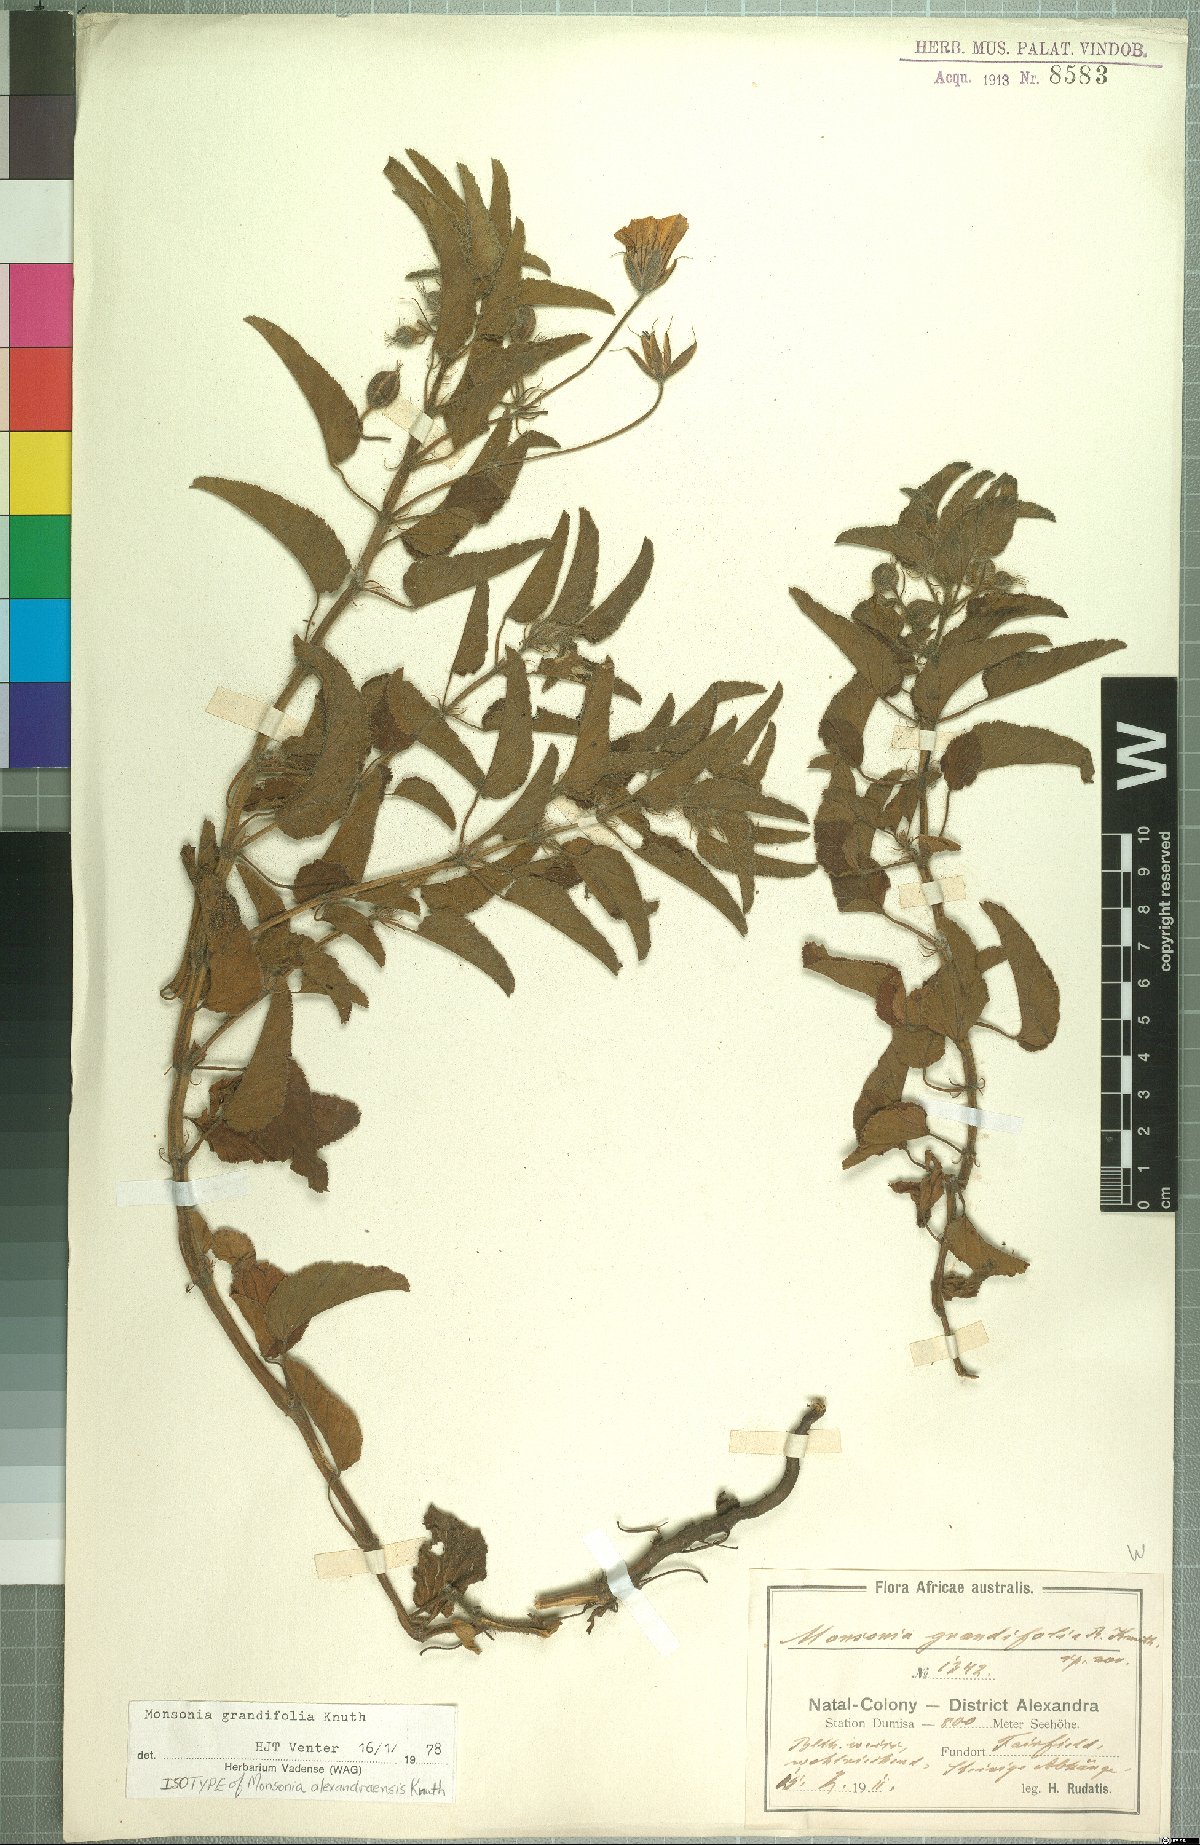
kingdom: Plantae
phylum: Tracheophyta
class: Magnoliopsida
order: Geraniales
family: Geraniaceae
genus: Monsonia
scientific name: Monsonia grandifolia
